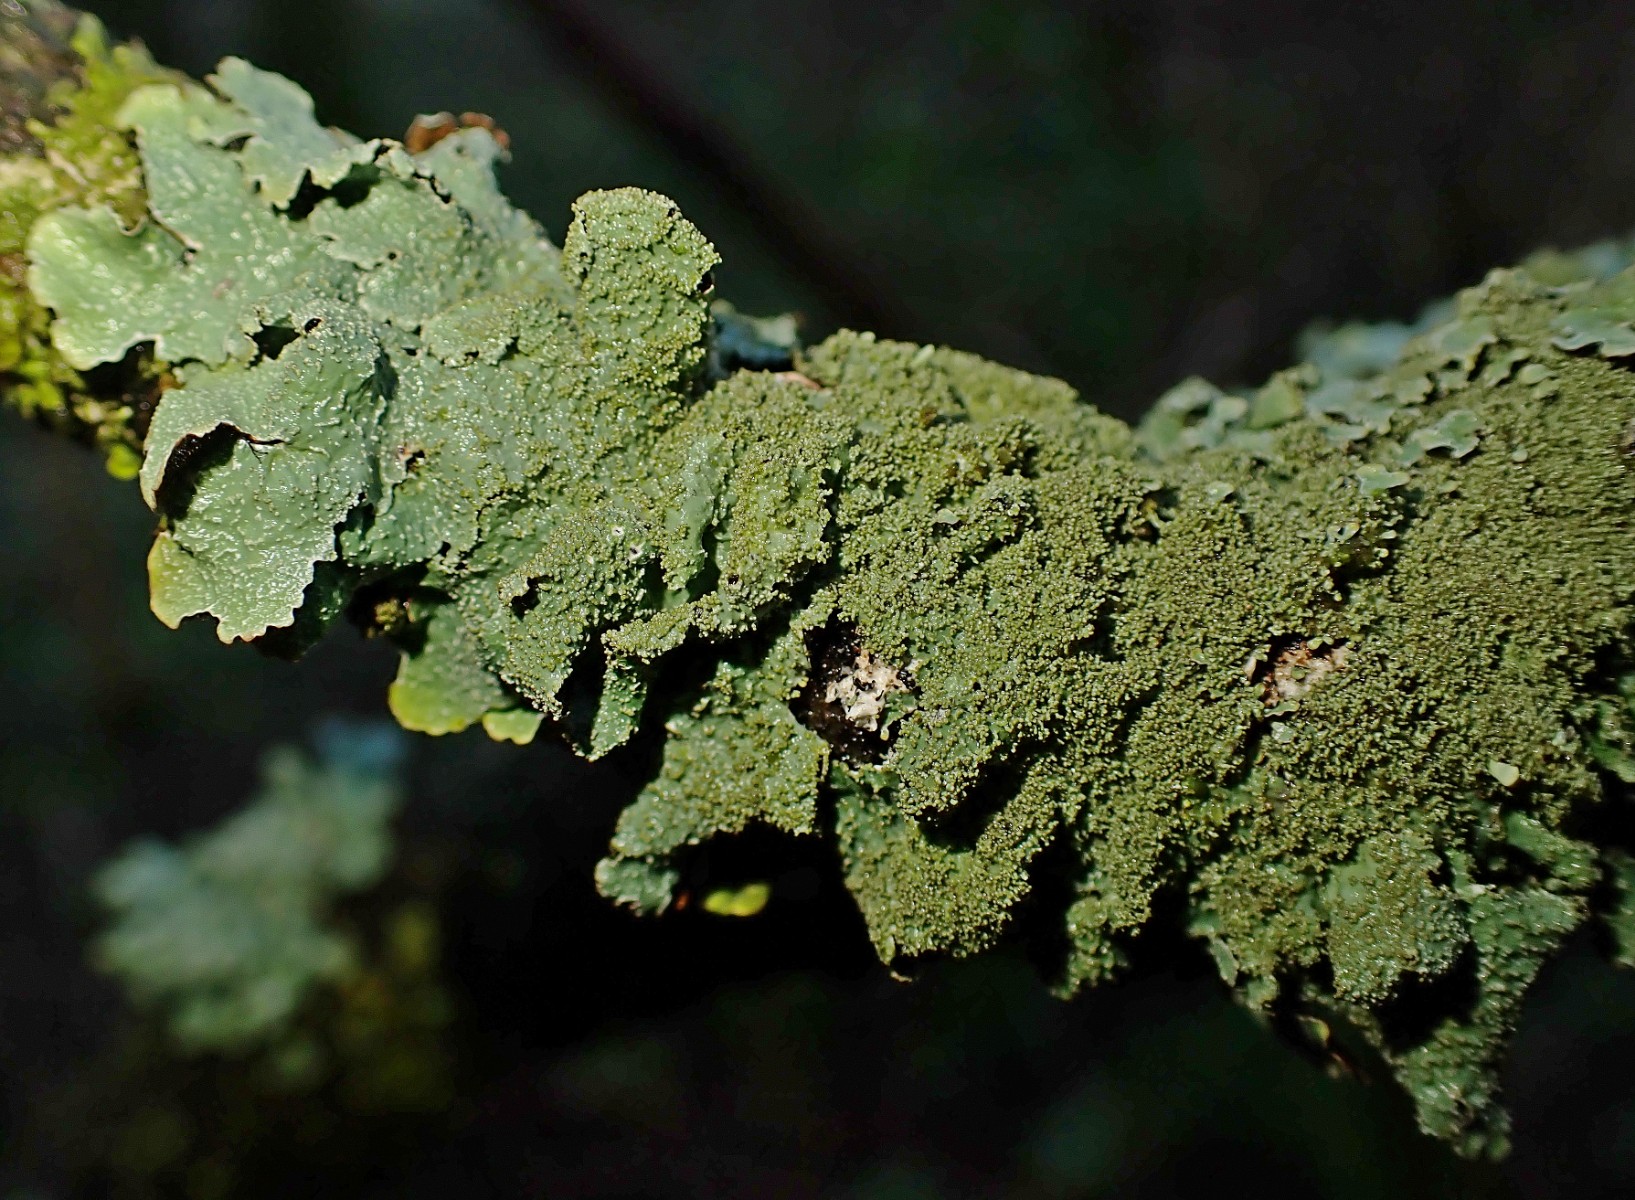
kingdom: Fungi
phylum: Ascomycota
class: Lecanoromycetes
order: Lecanorales
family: Parmeliaceae
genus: Parmelia
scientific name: Parmelia saxatilis
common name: farve-skållav
